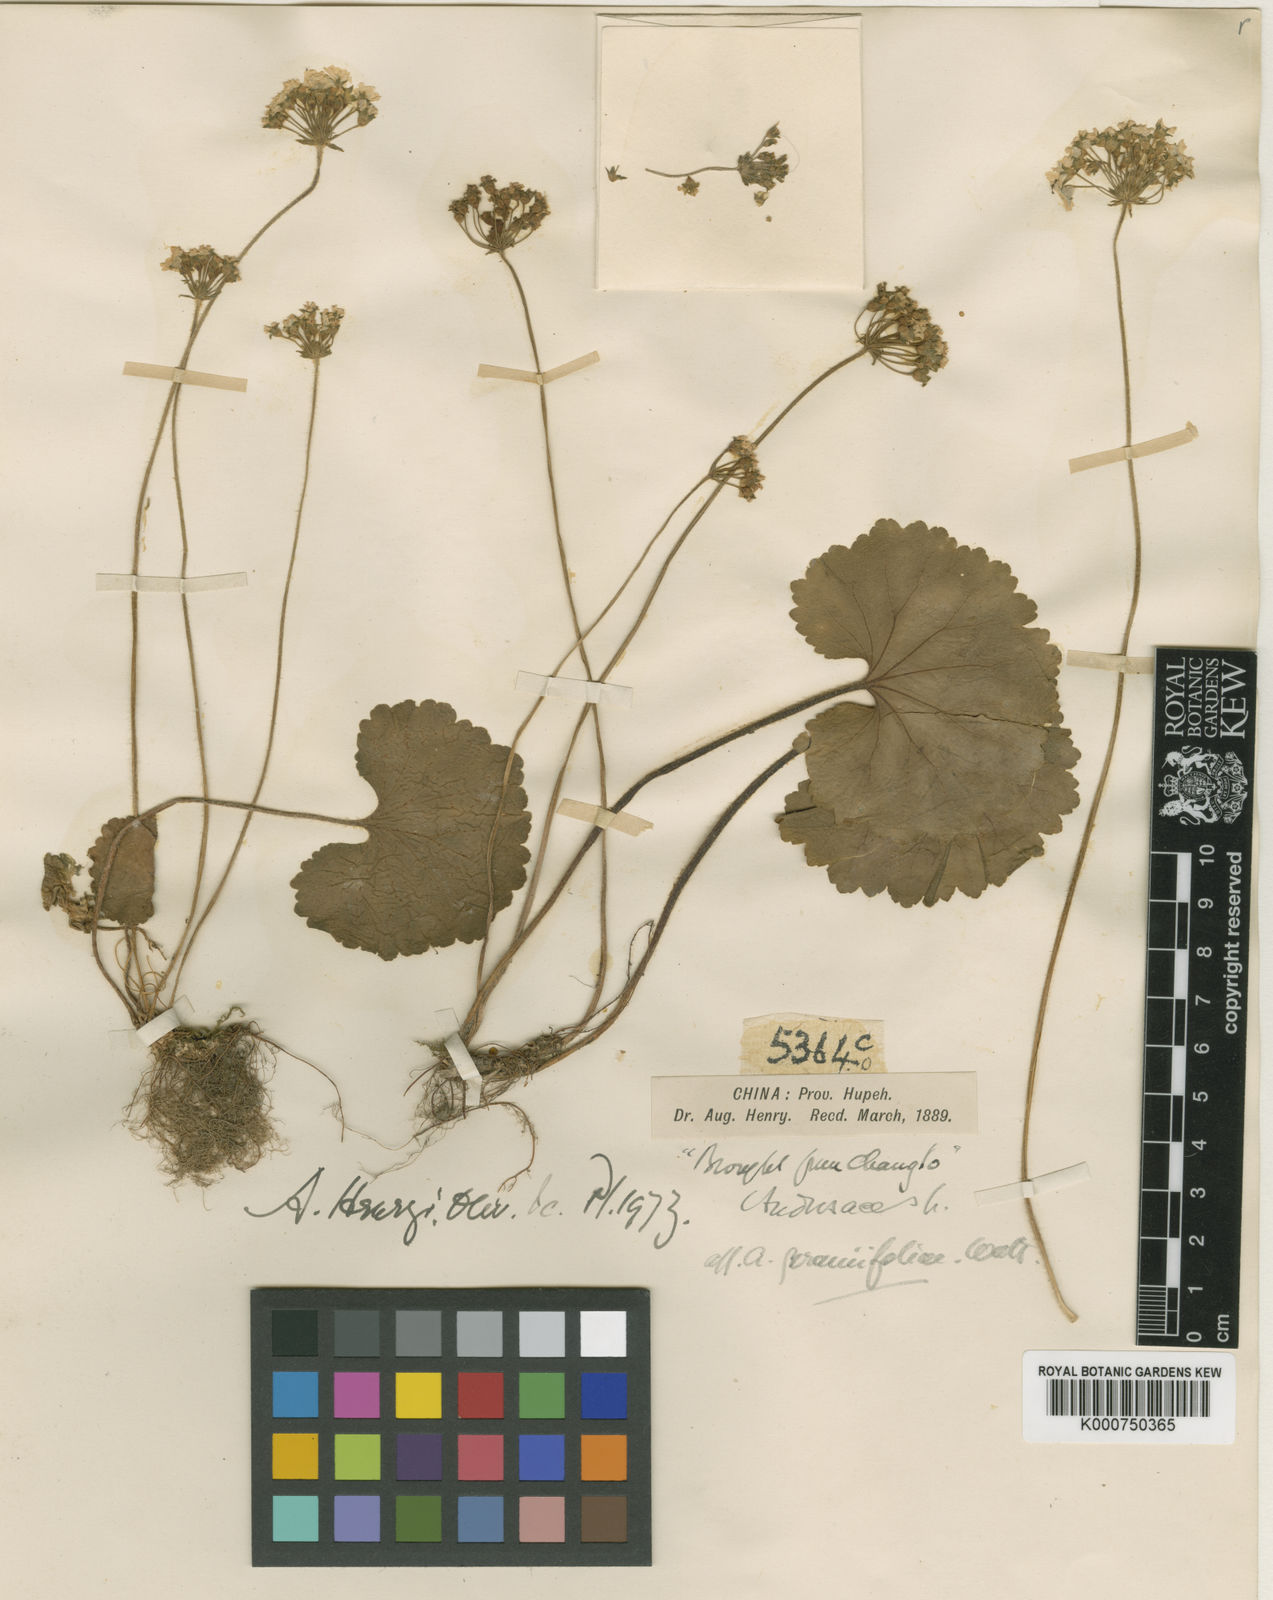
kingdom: Plantae
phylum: Tracheophyta
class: Magnoliopsida
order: Ericales
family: Primulaceae
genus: Androsace
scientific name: Androsace henryi
